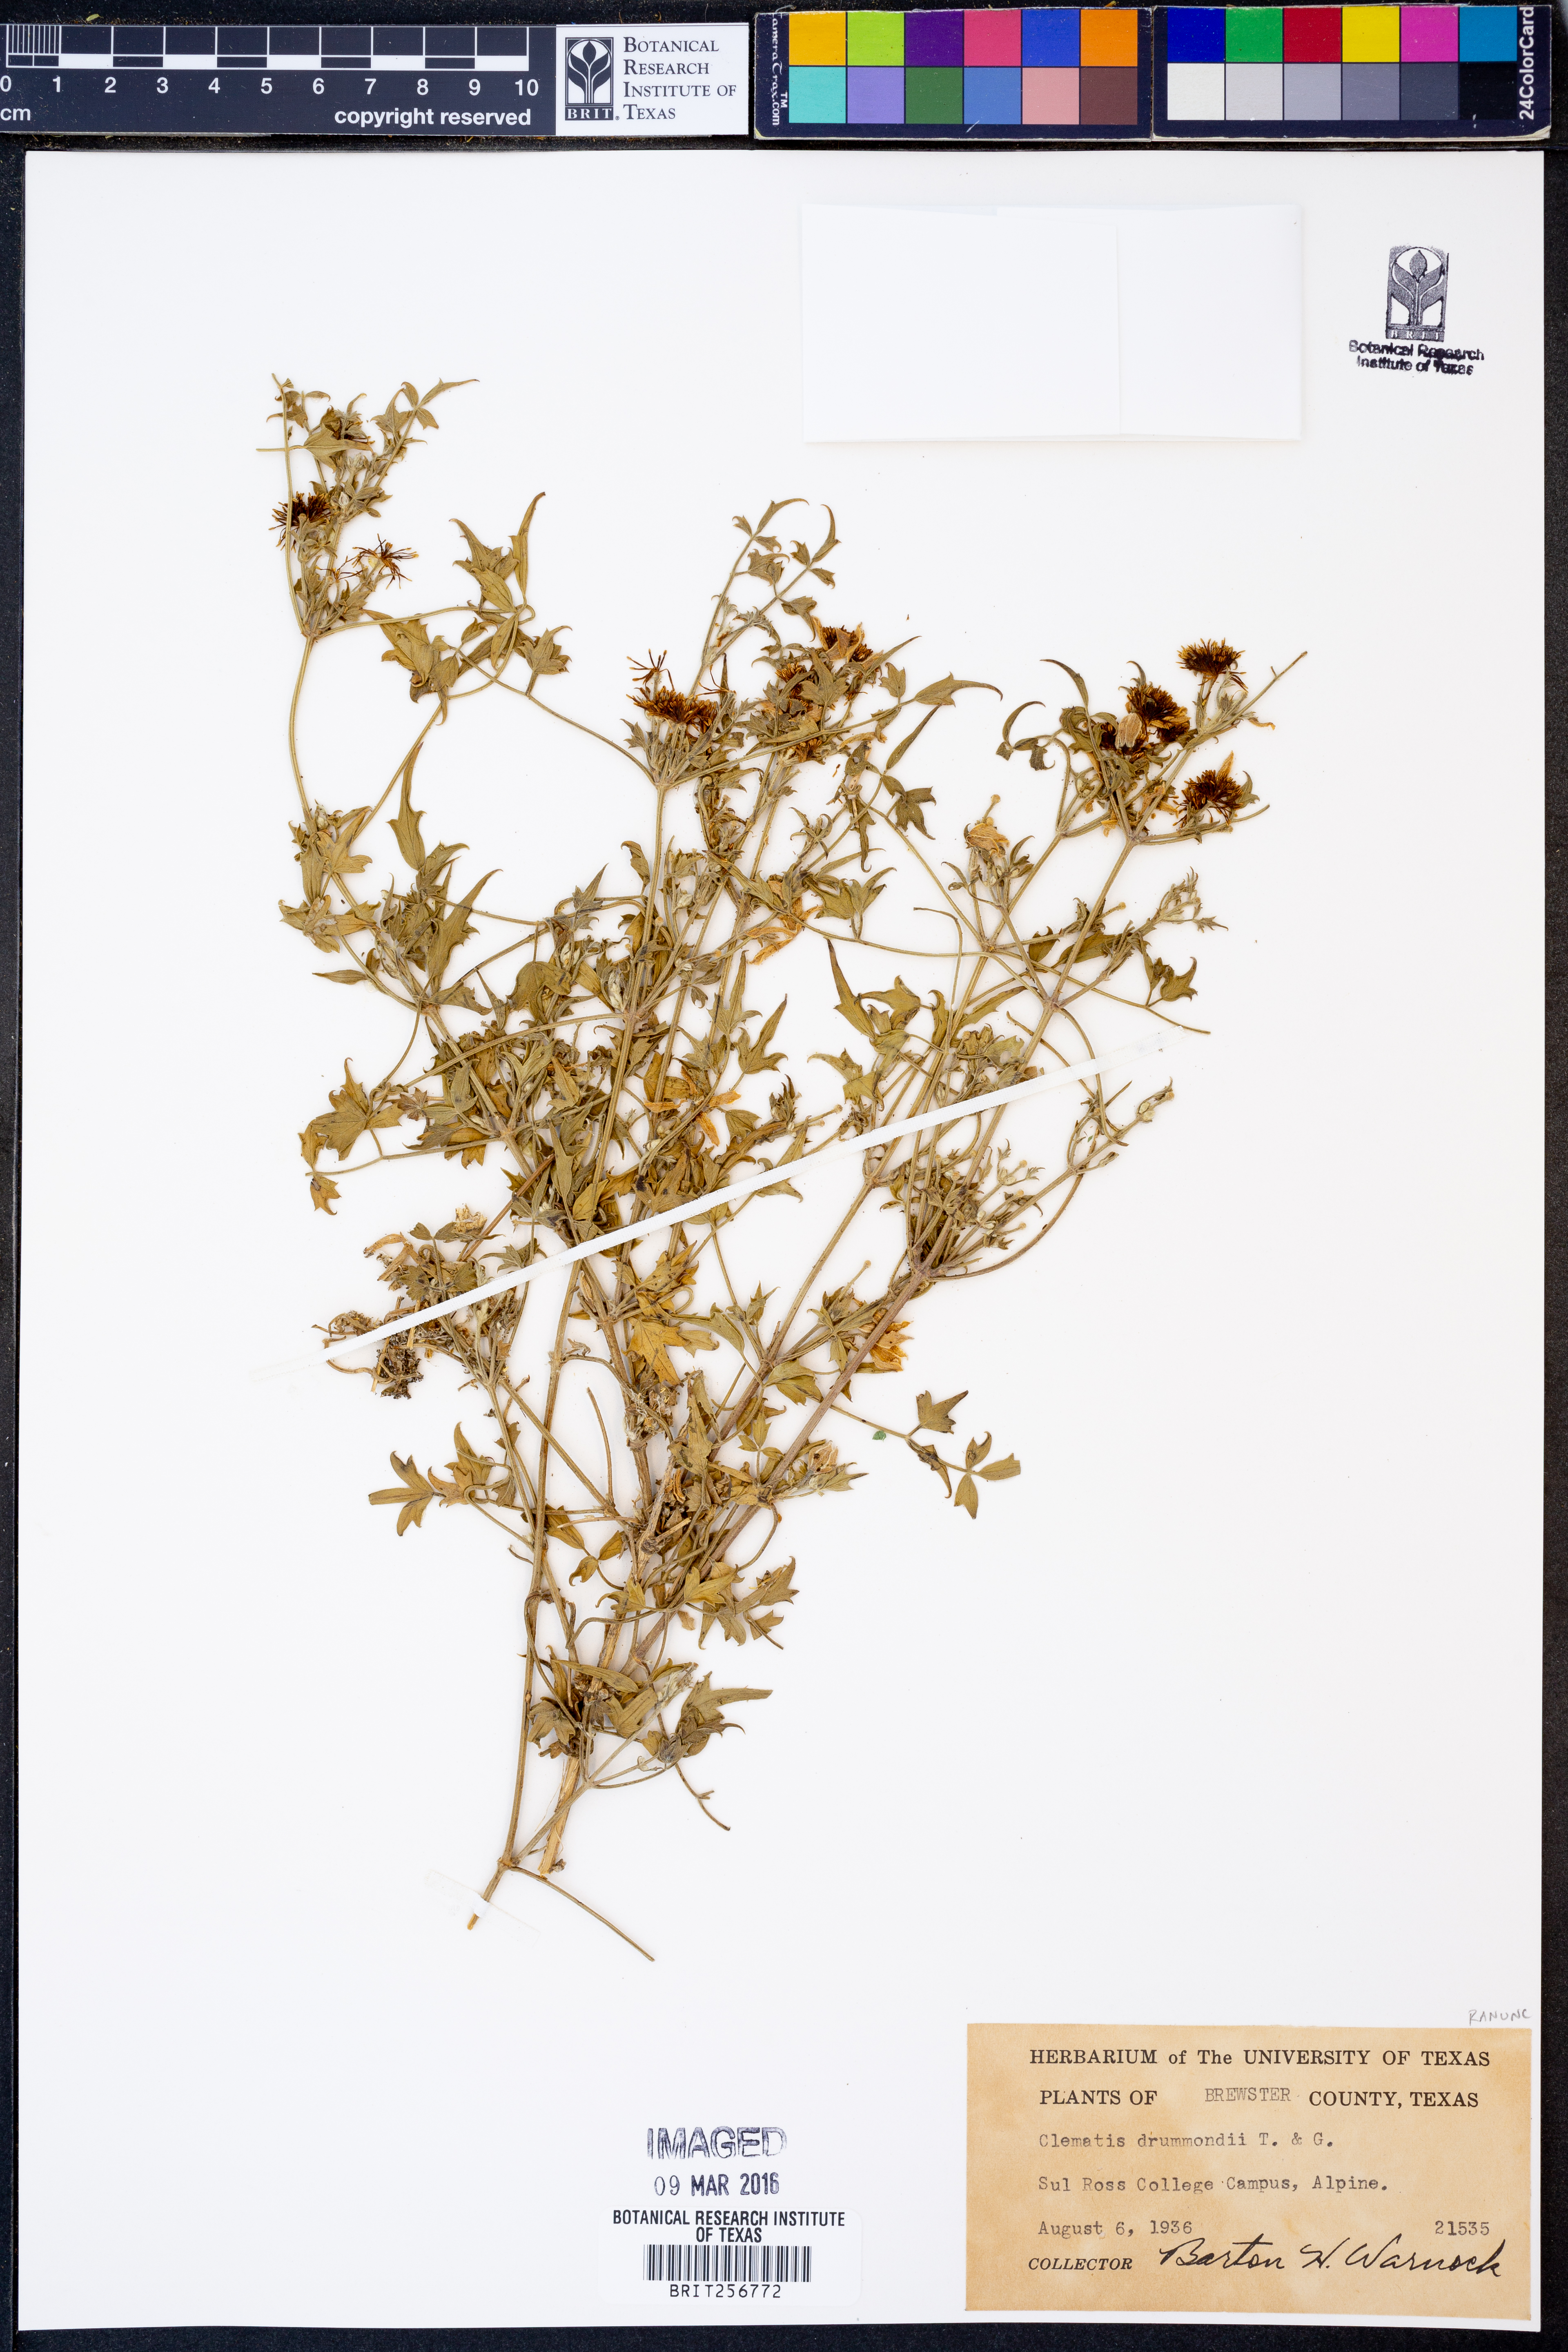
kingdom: Plantae
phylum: Tracheophyta
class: Magnoliopsida
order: Ranunculales
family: Ranunculaceae
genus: Clematis
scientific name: Clematis drummondii
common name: Texas virgin's bower
